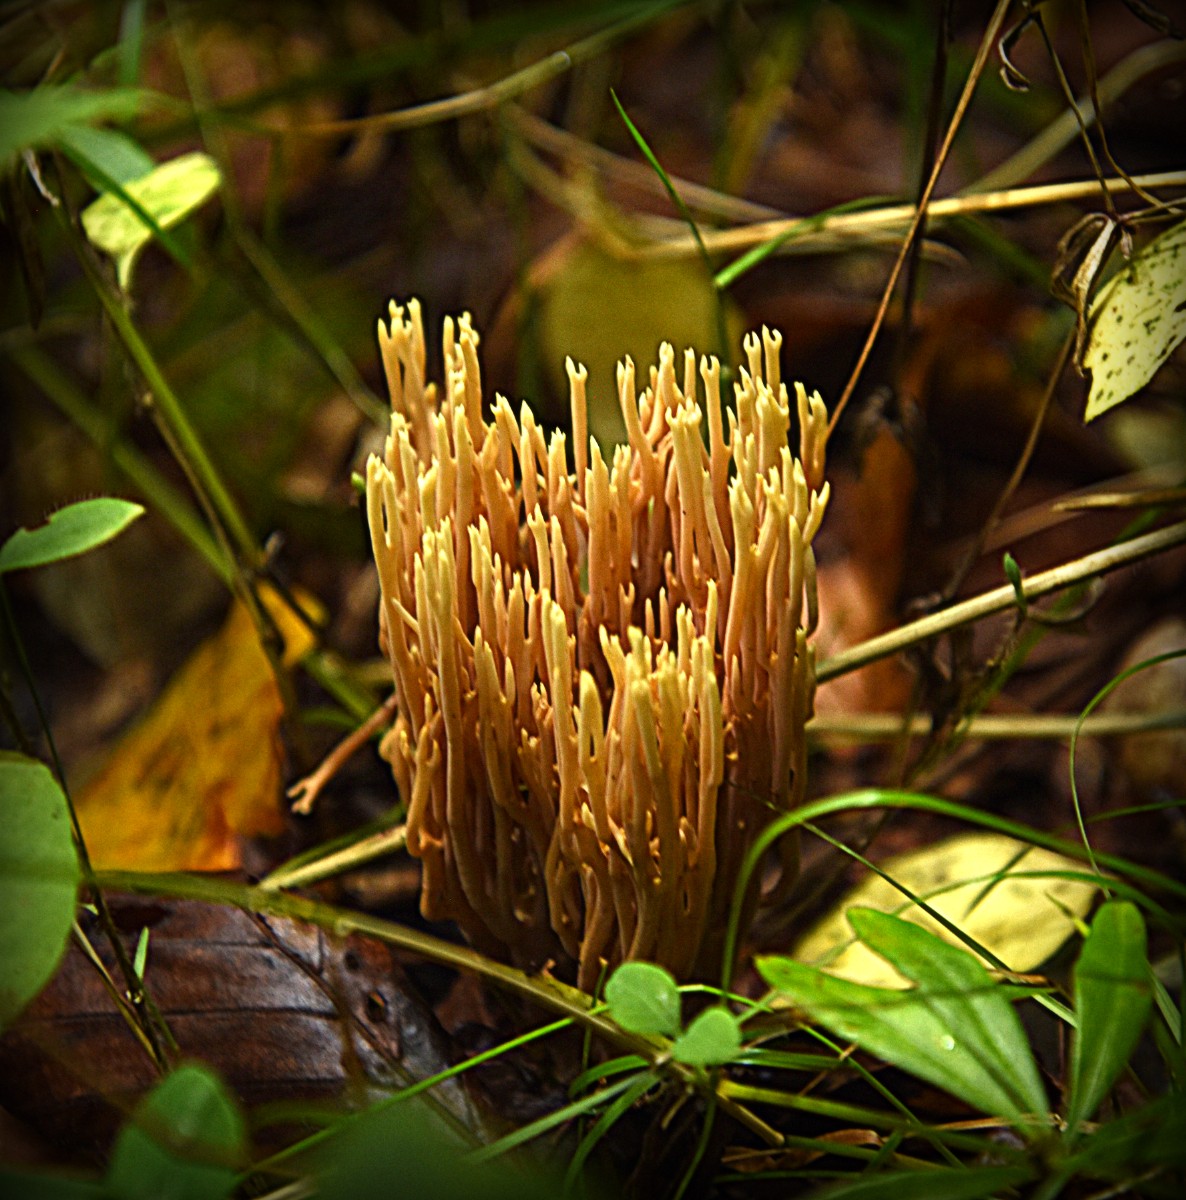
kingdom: Fungi
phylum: Basidiomycota
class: Agaricomycetes
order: Gomphales
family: Gomphaceae
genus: Ramaria
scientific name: Ramaria stricta
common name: rank koralsvamp
